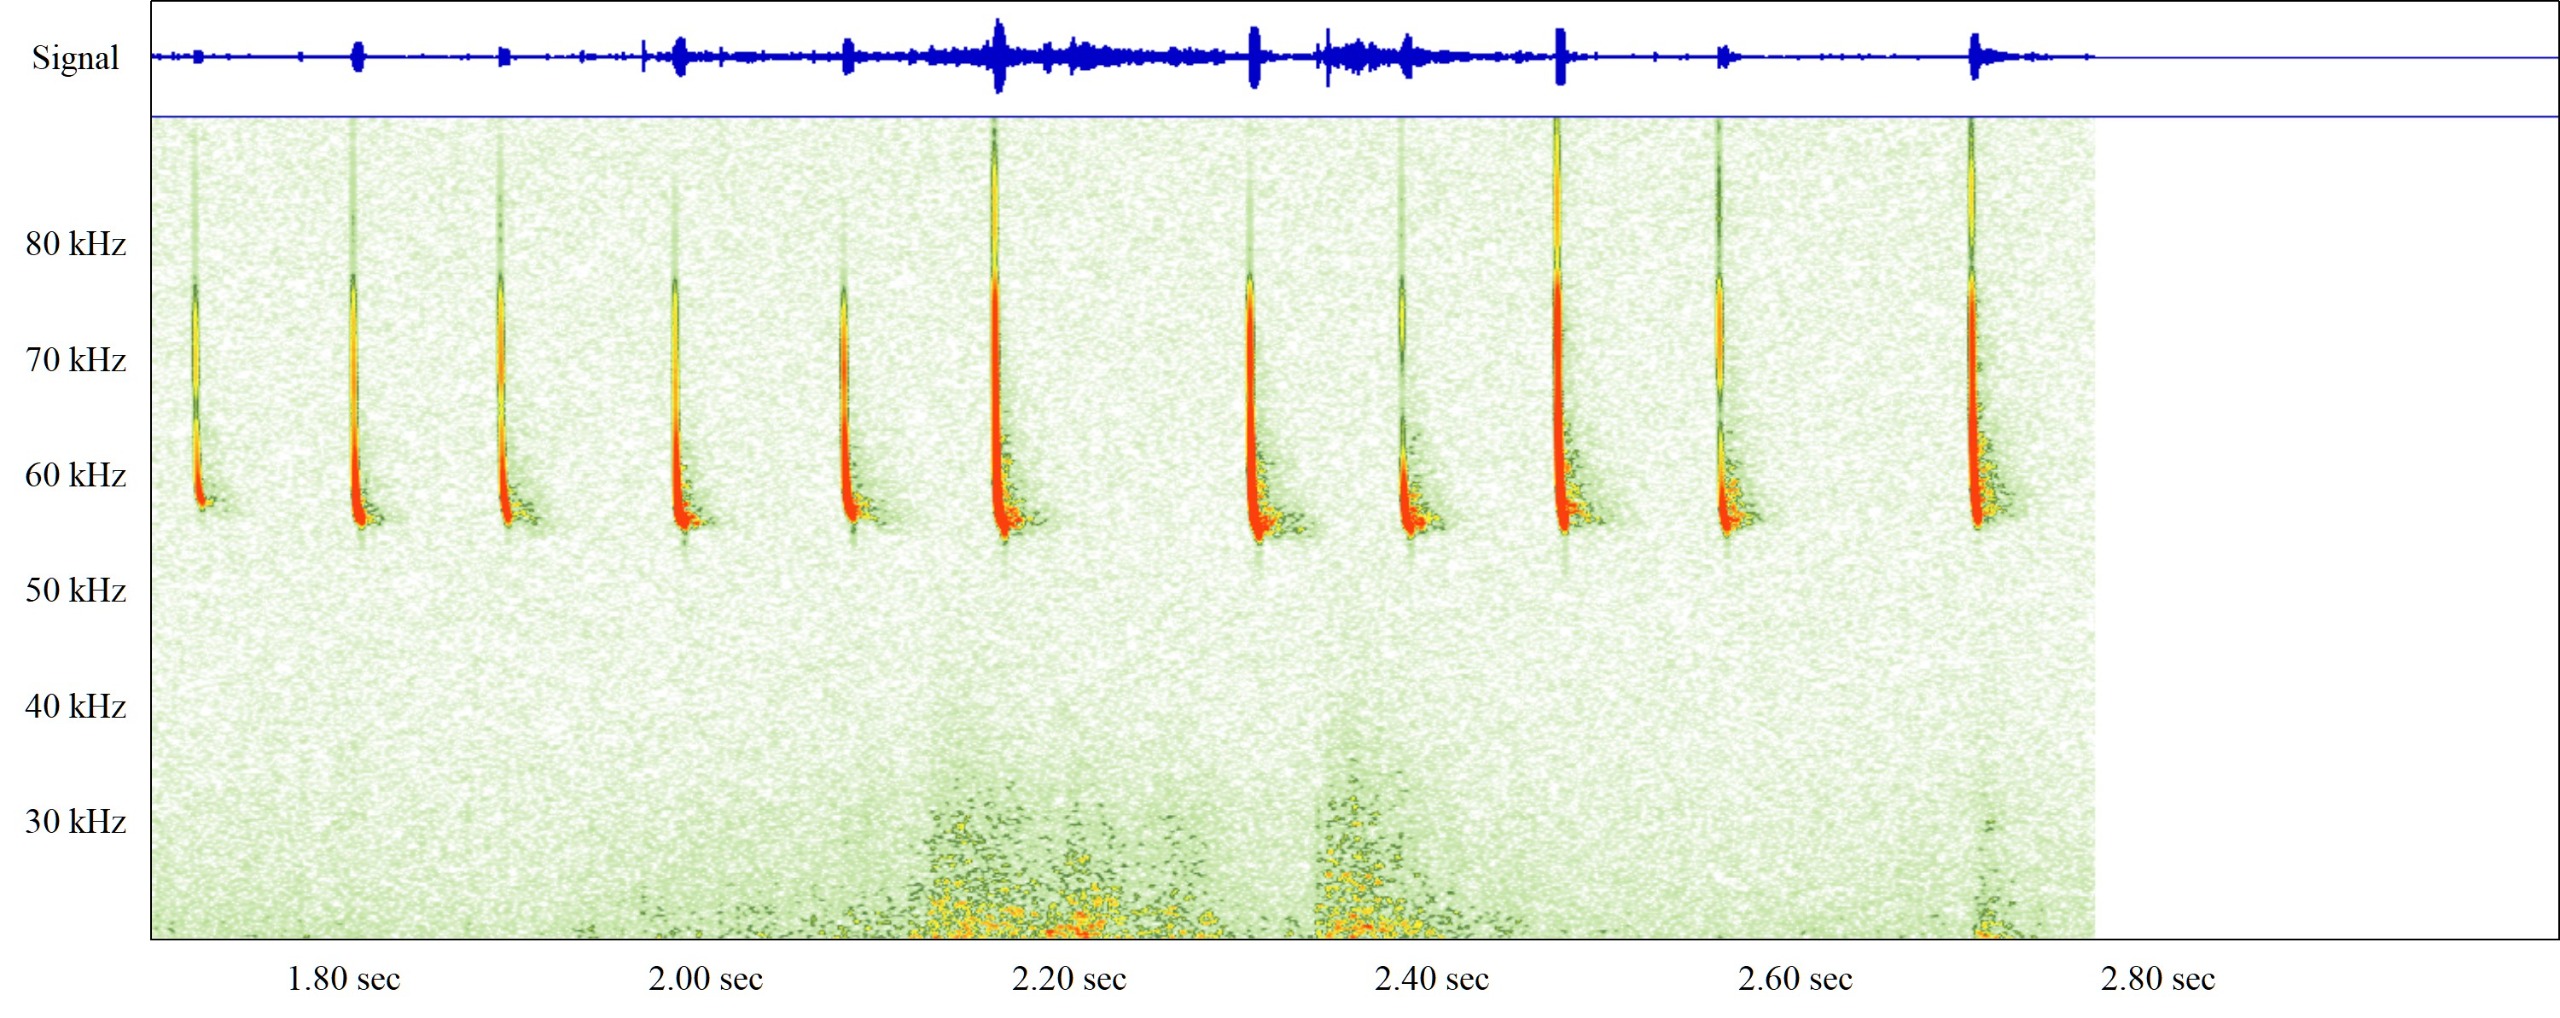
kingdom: Animalia
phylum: Chordata
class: Mammalia
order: Chiroptera
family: Vespertilionidae
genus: Pipistrellus
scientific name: Pipistrellus pygmaeus
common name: Dværgflagermus
